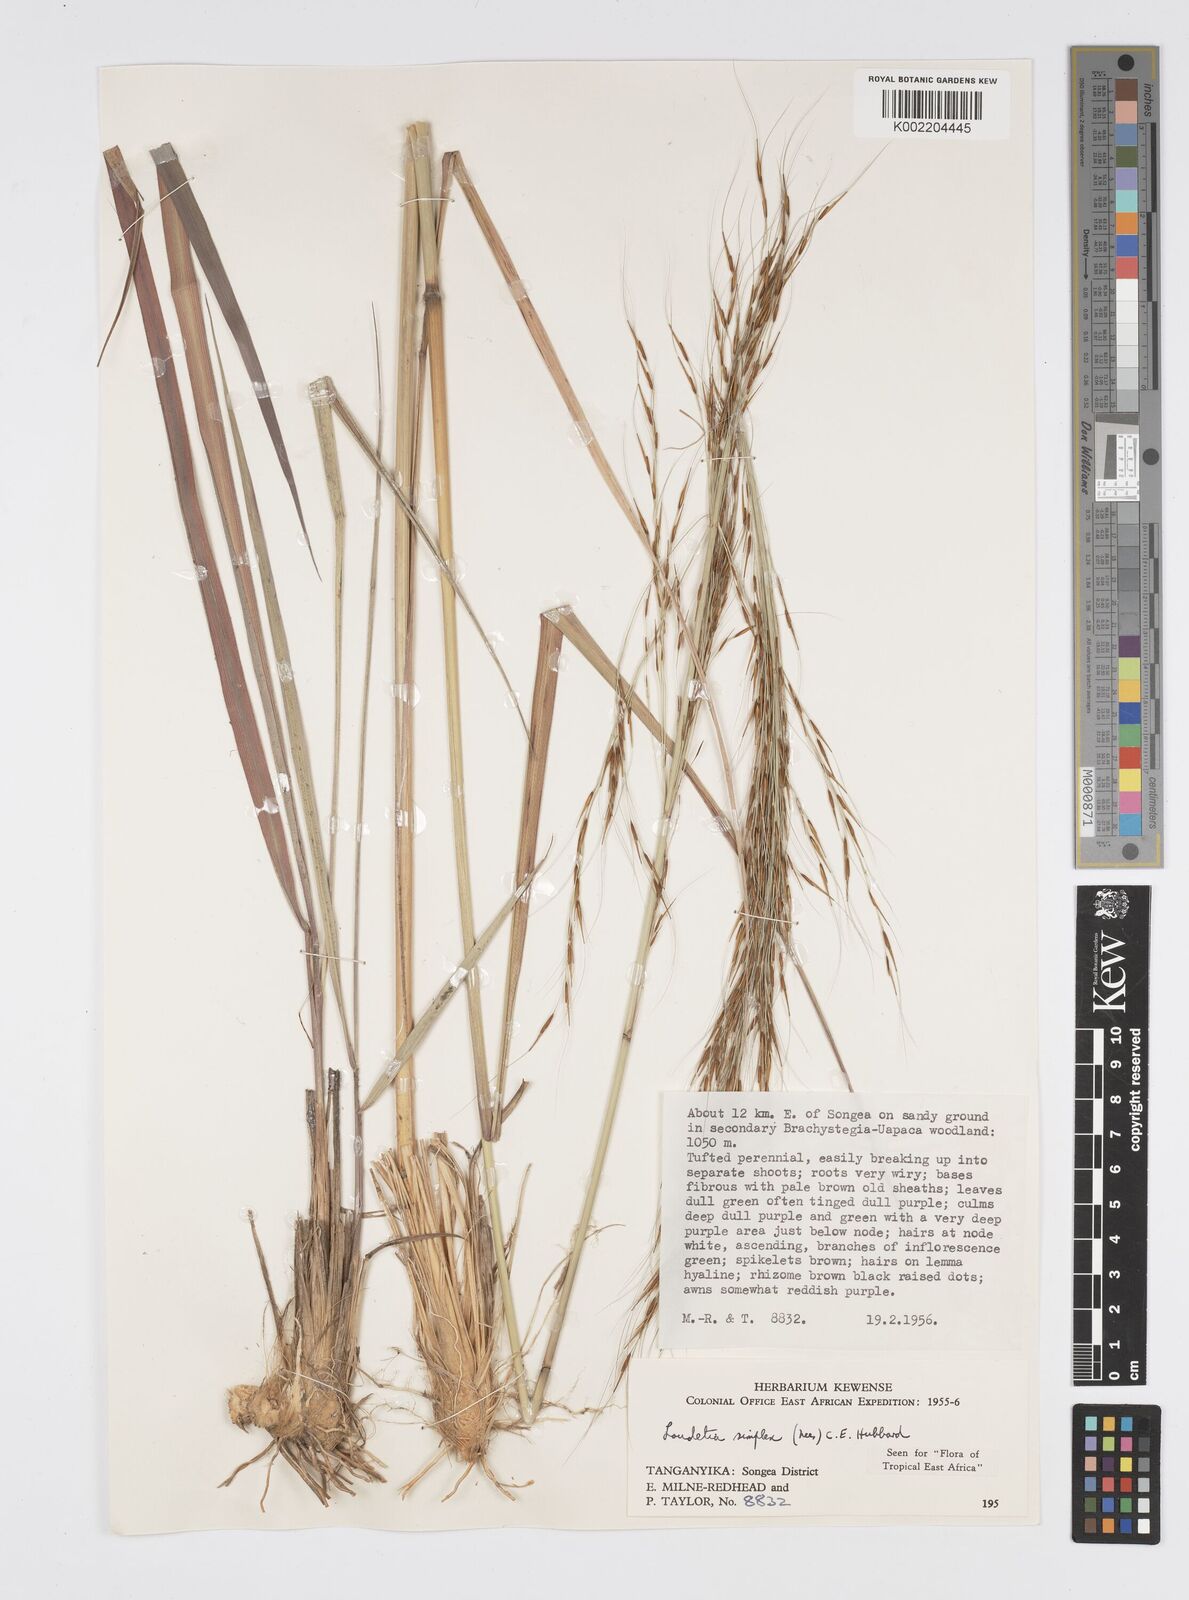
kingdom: Plantae
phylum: Tracheophyta
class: Liliopsida
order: Poales
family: Poaceae
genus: Loudetia
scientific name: Loudetia simplex
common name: Common russet grass
